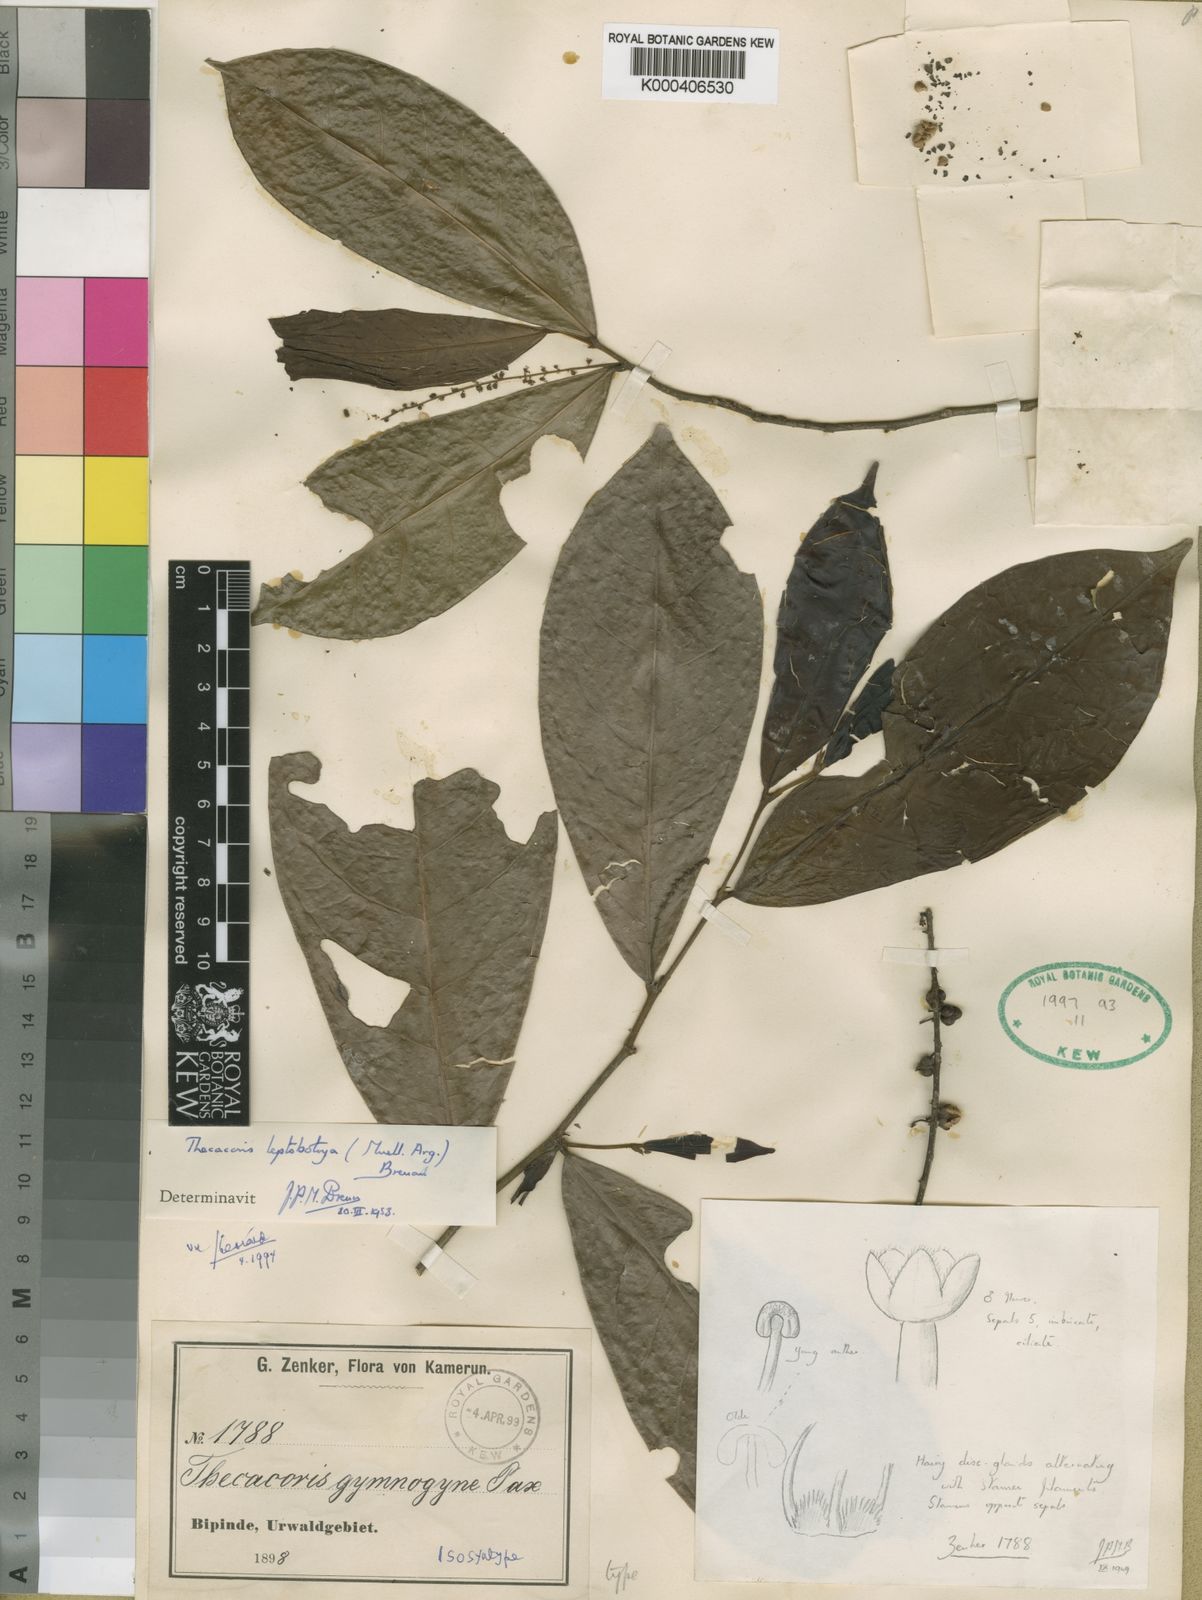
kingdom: Plantae
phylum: Tracheophyta
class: Magnoliopsida
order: Malpighiales
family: Phyllanthaceae
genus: Thecacoris
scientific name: Thecacoris
